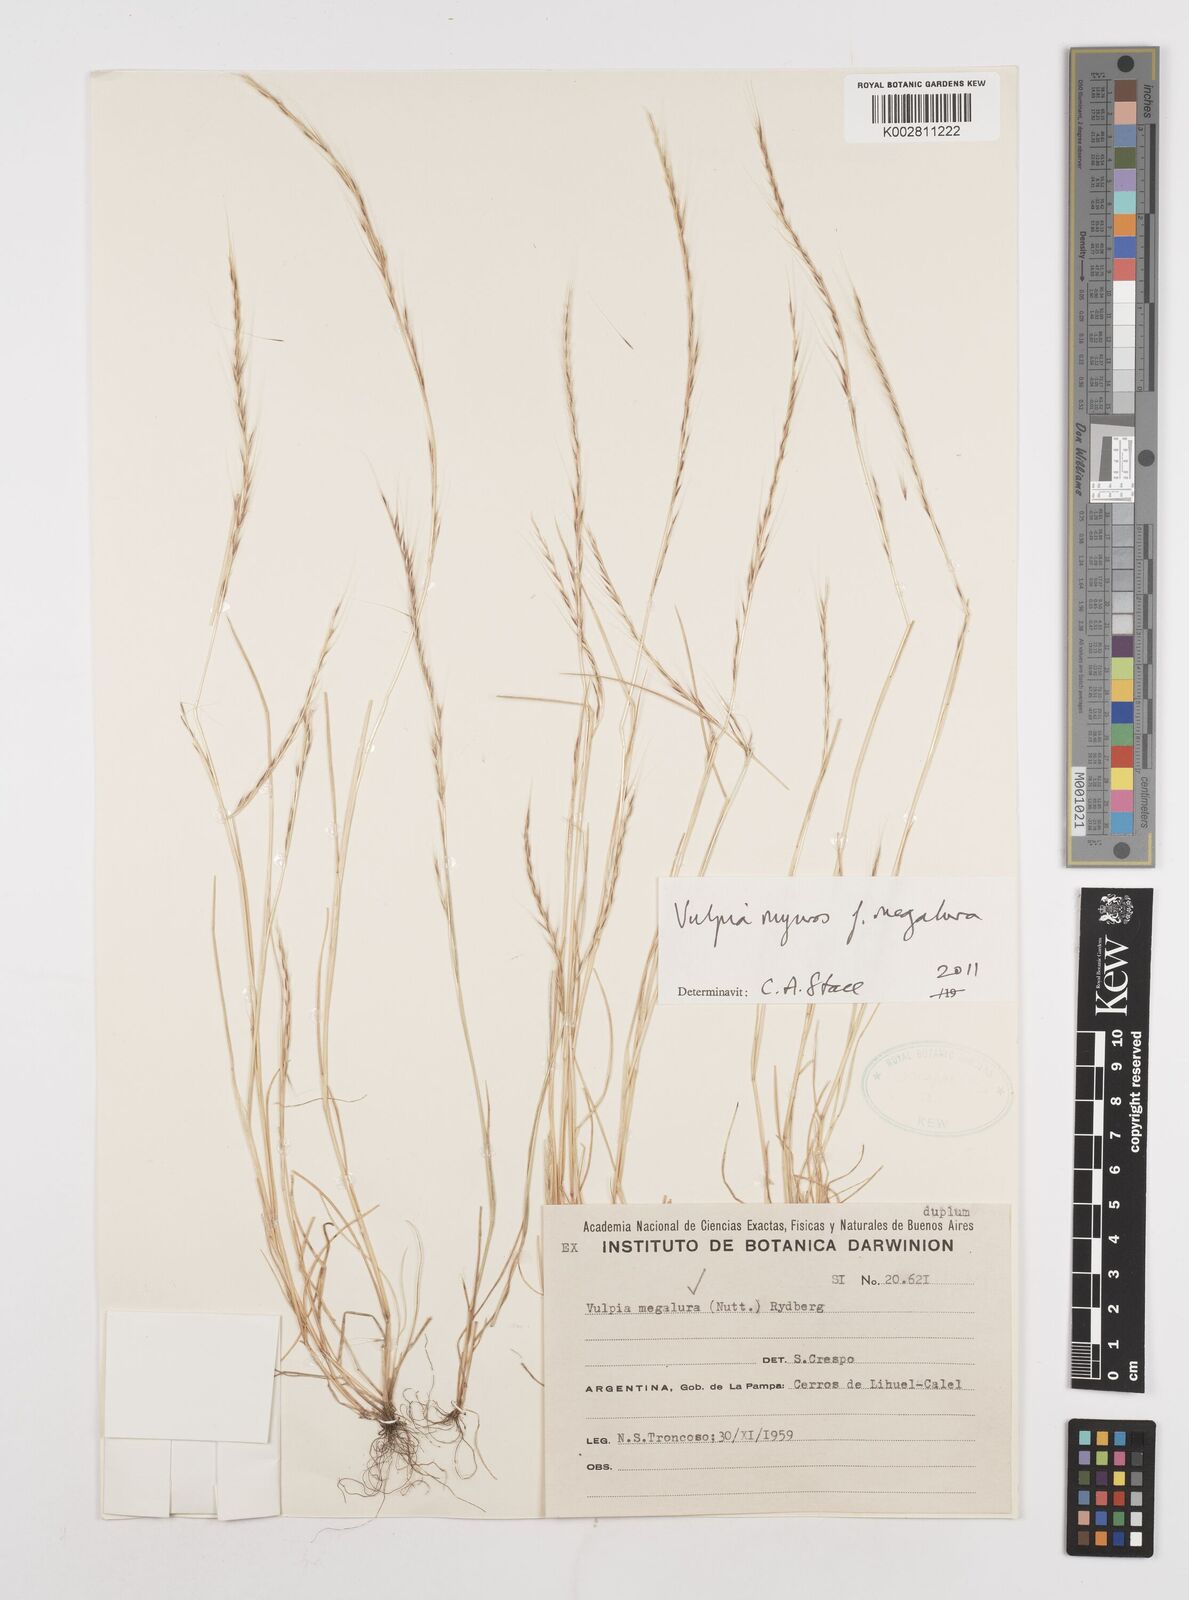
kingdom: Plantae
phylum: Tracheophyta
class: Liliopsida
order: Poales
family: Poaceae
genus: Festuca
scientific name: Festuca myuros
